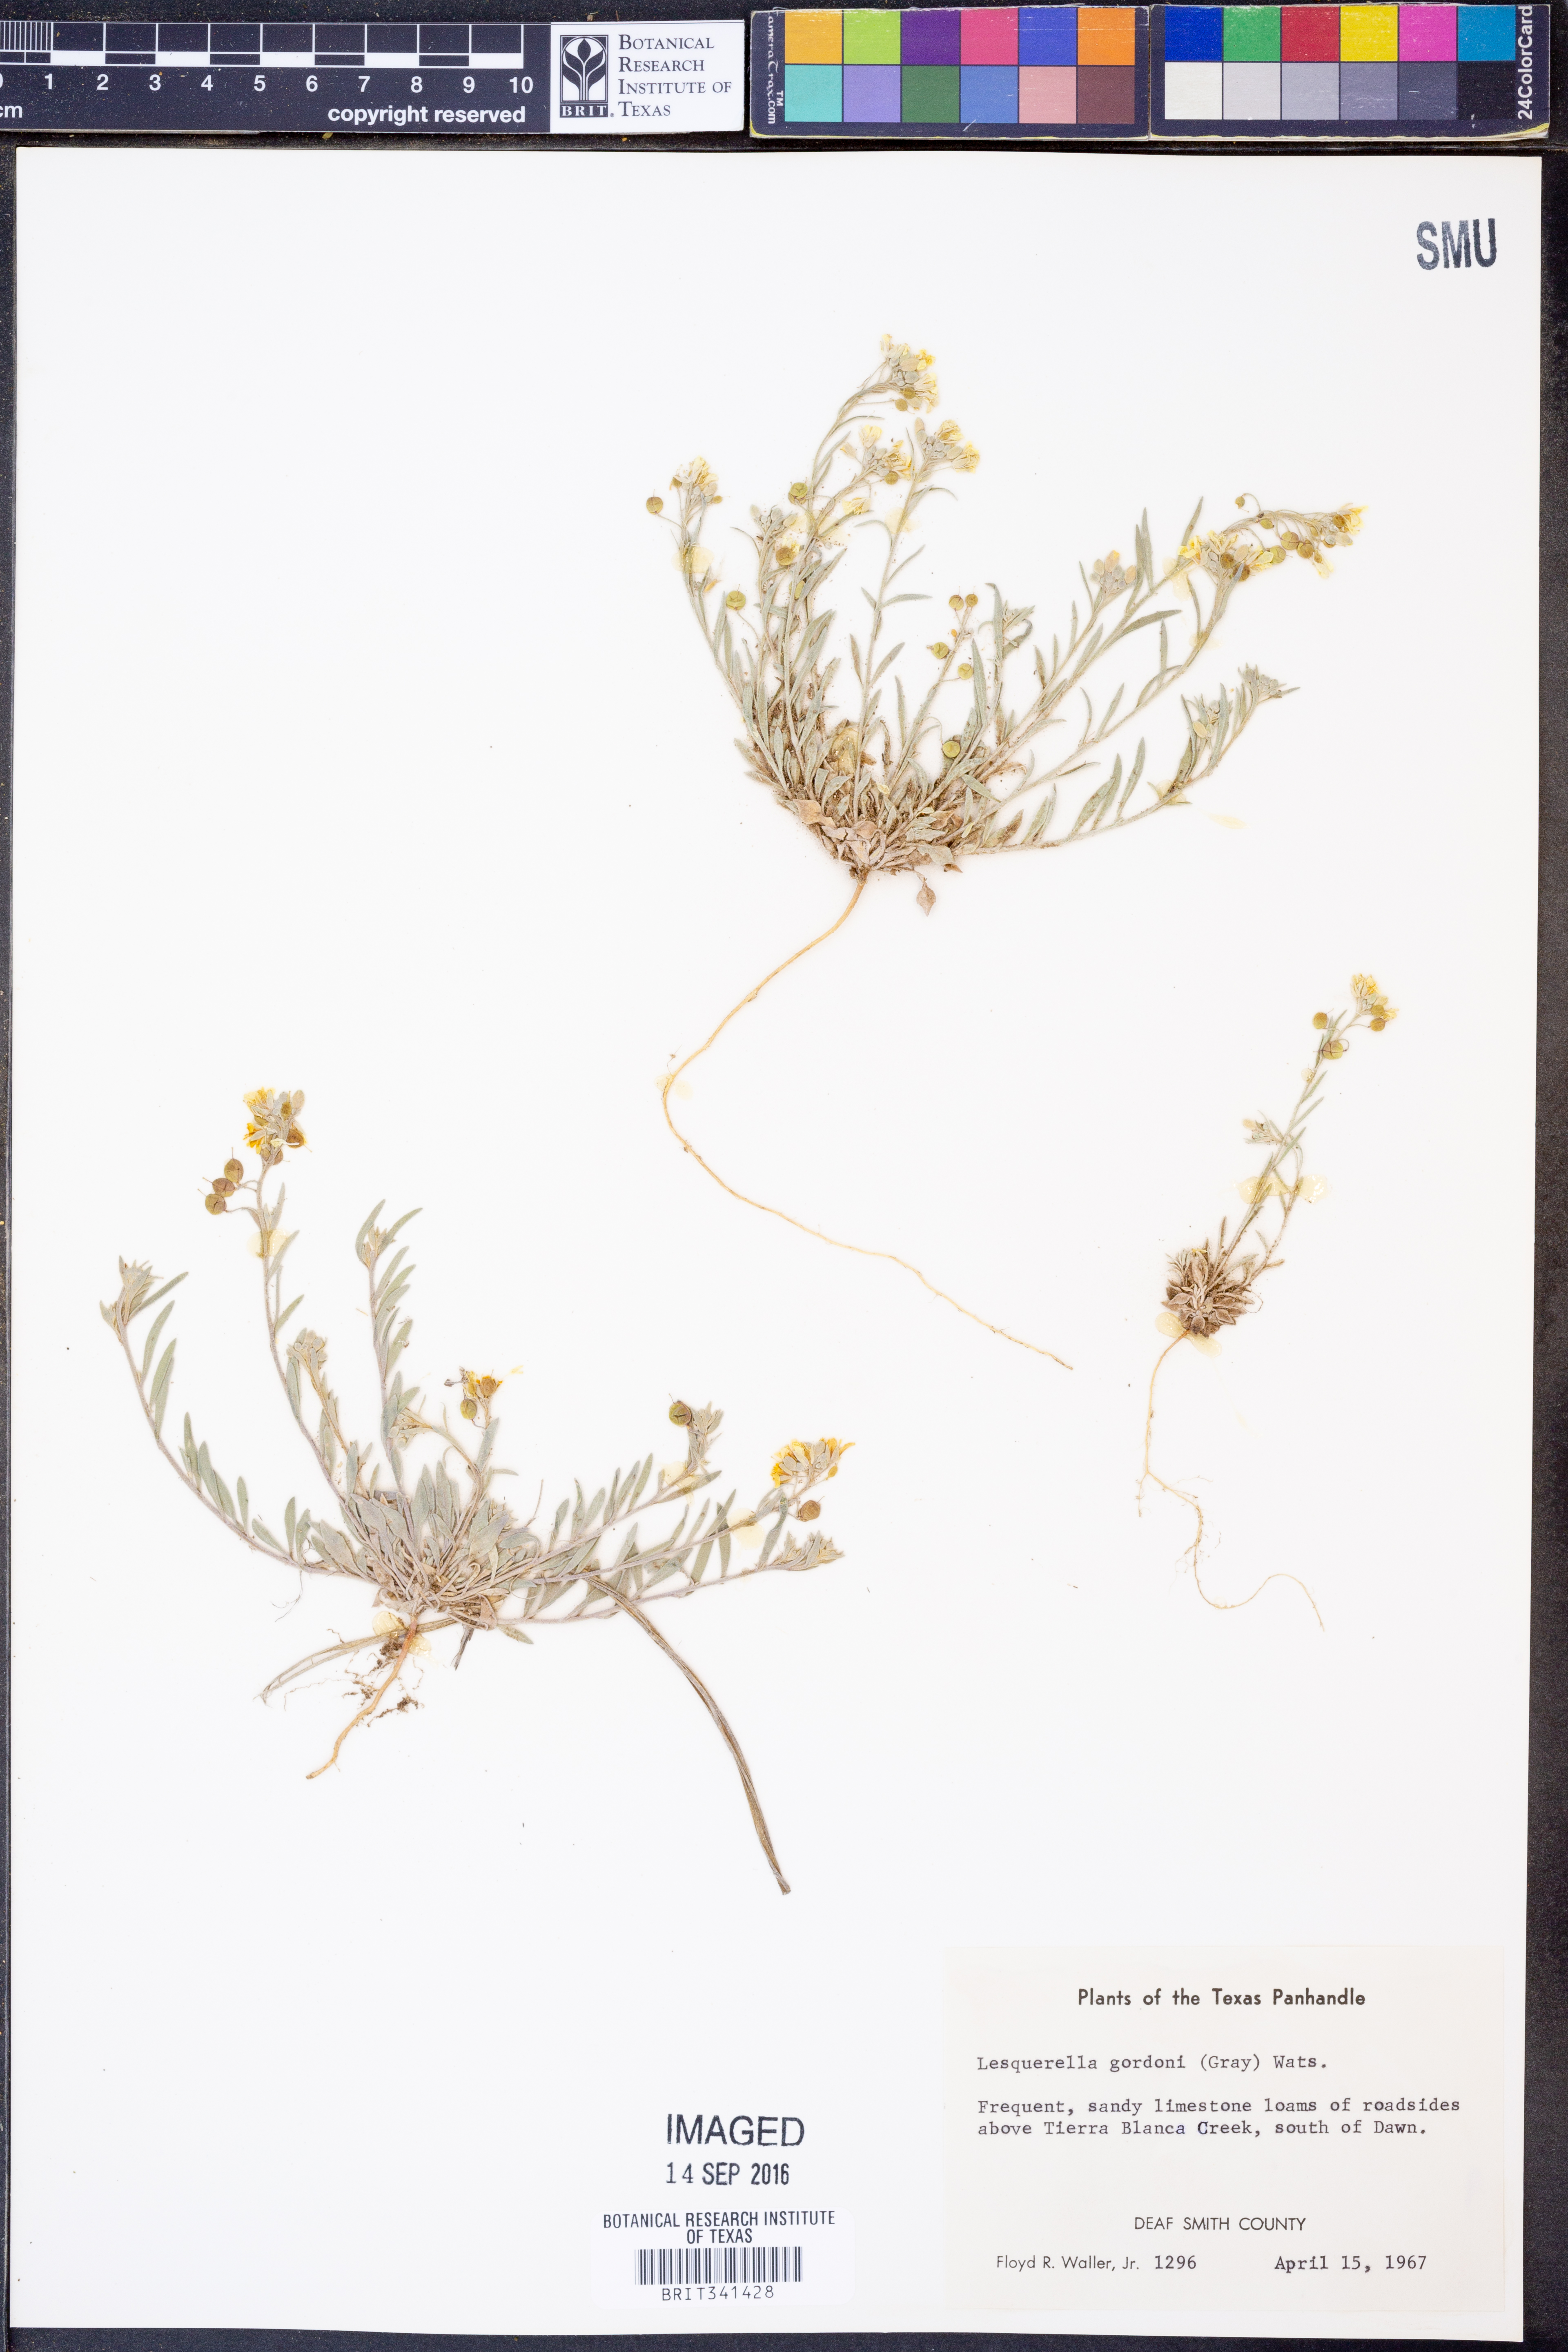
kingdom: Plantae
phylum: Tracheophyta
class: Magnoliopsida
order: Brassicales
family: Brassicaceae
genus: Physaria
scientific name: Physaria gordonii
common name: Gordon's bladderpod
